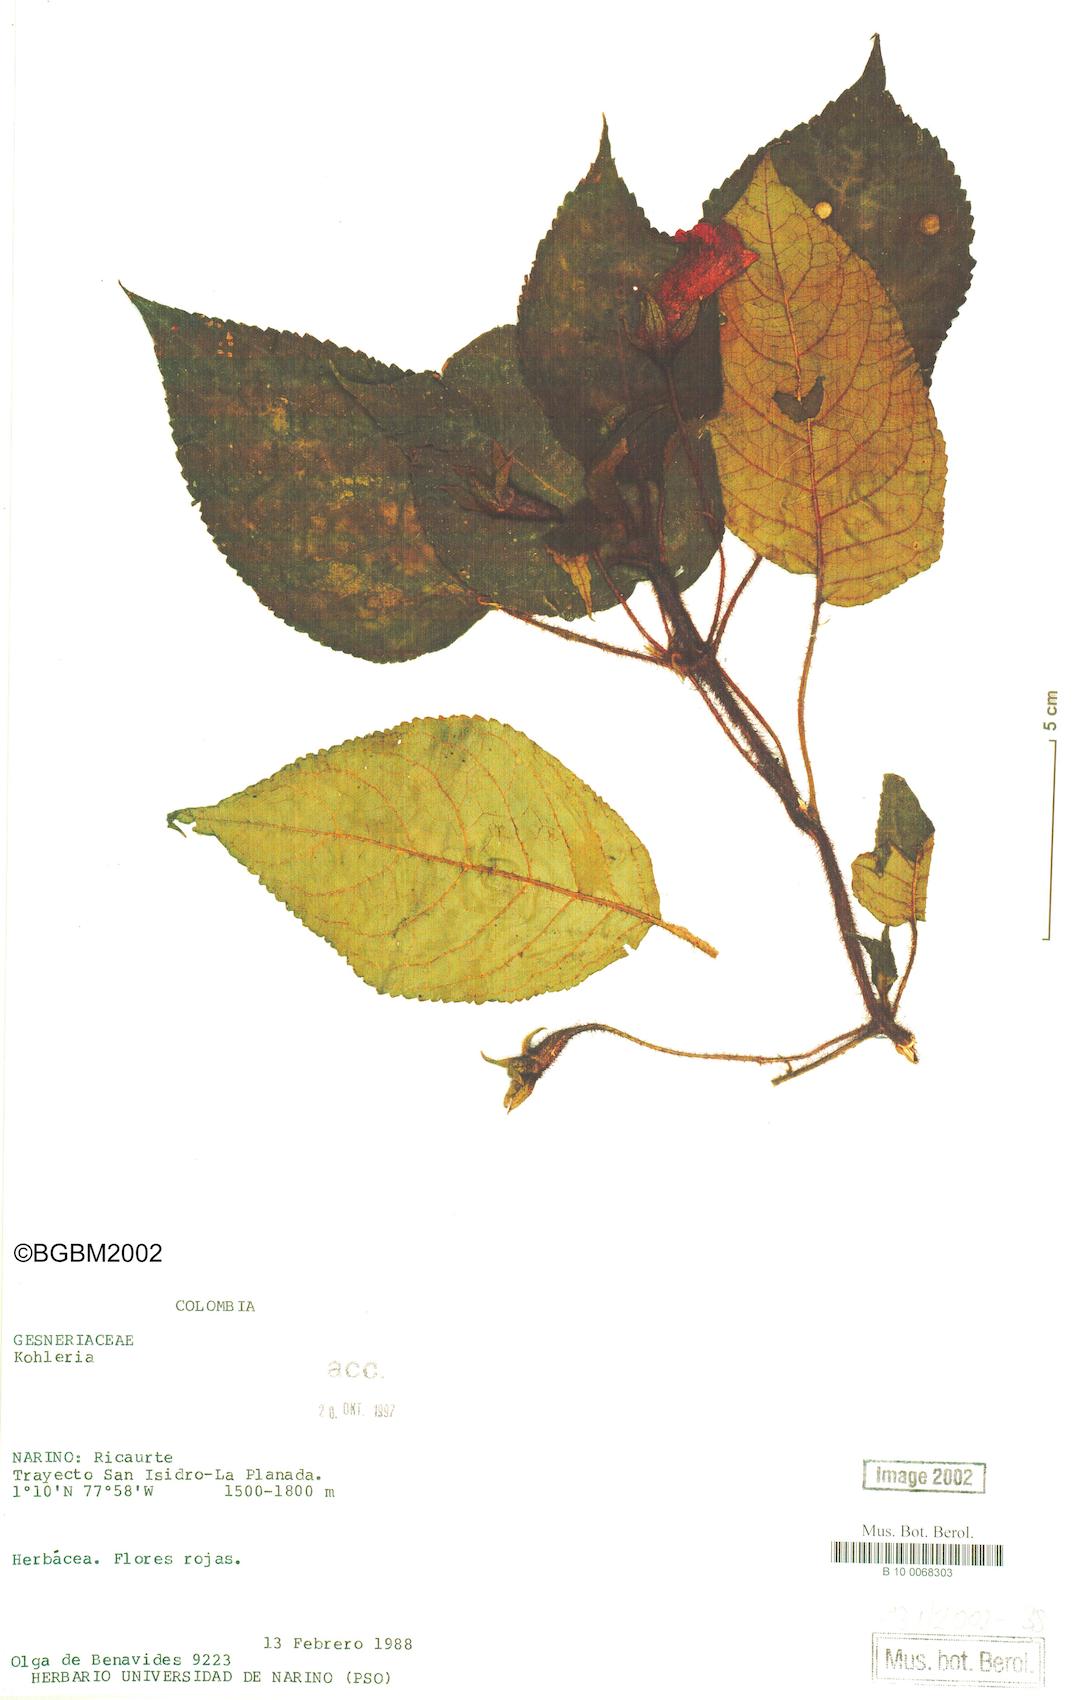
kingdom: Plantae
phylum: Tracheophyta
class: Magnoliopsida
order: Lamiales
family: Gesneriaceae
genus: Kohleria
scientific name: Kohleria
